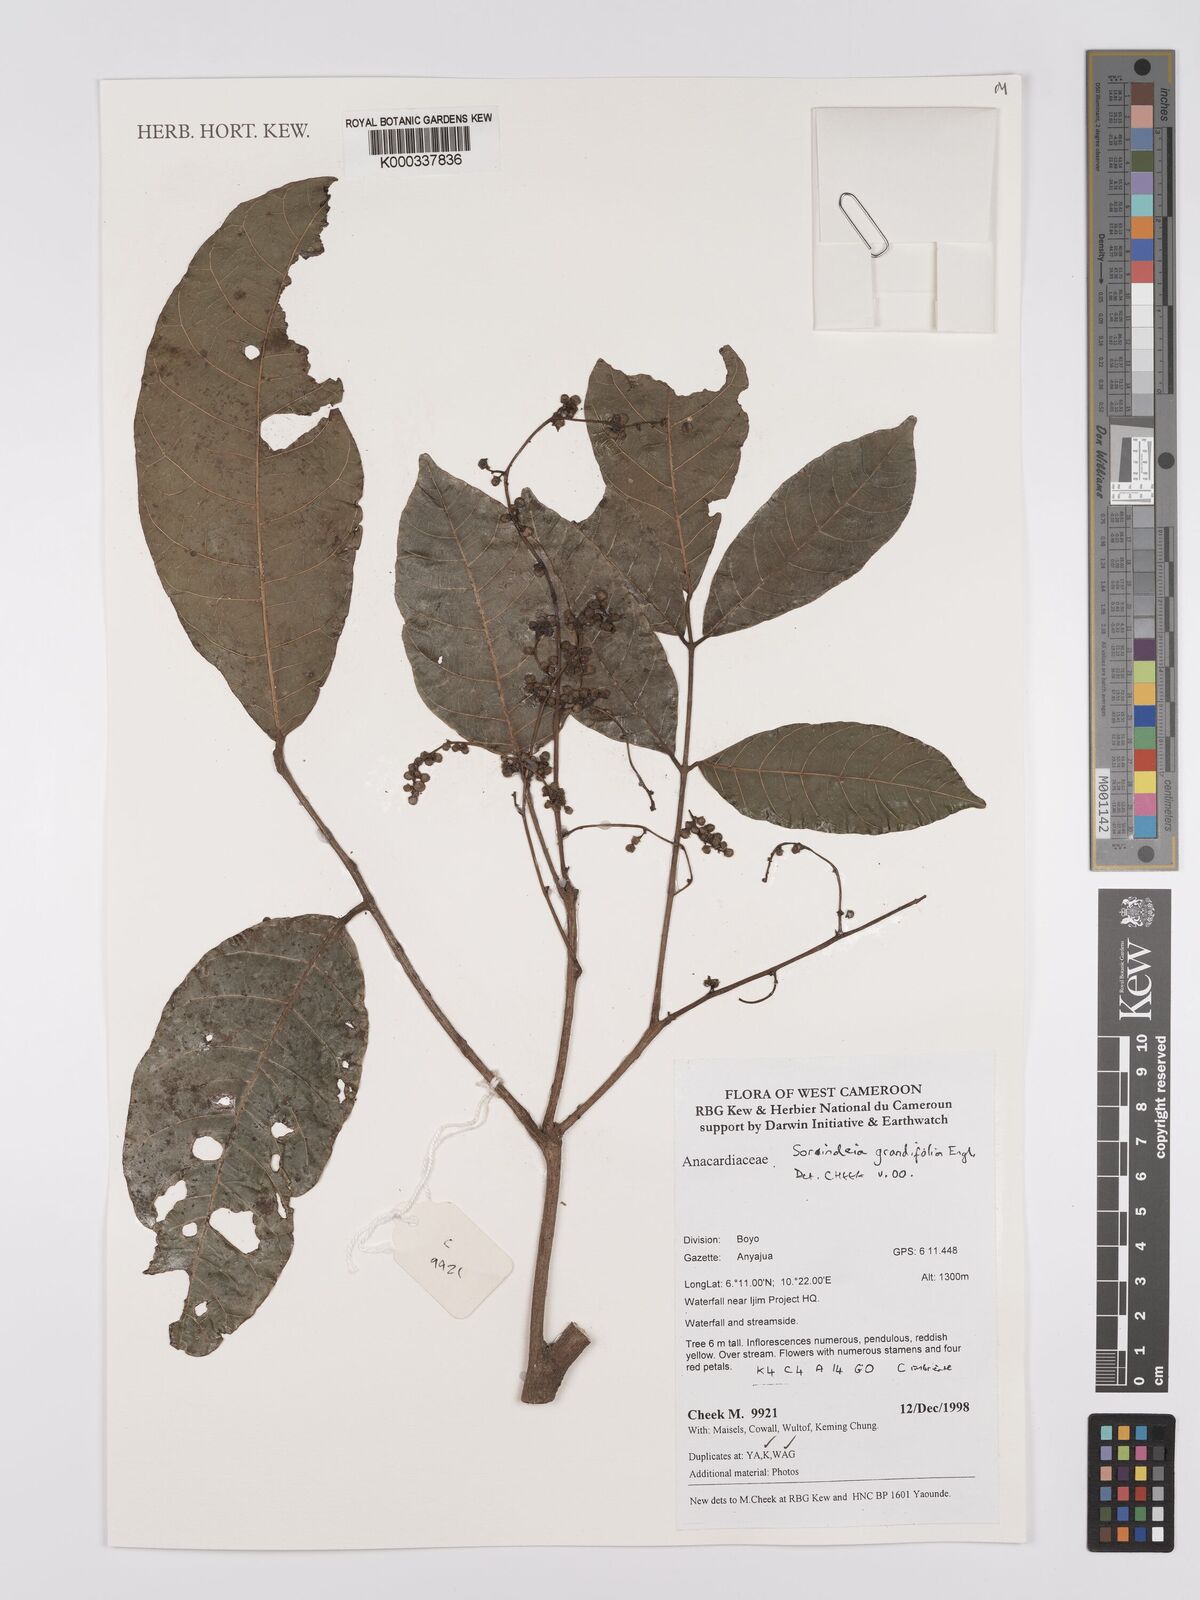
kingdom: Plantae
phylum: Tracheophyta
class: Magnoliopsida
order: Sapindales
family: Anacardiaceae
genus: Sorindeia
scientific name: Sorindeia grandifolia
